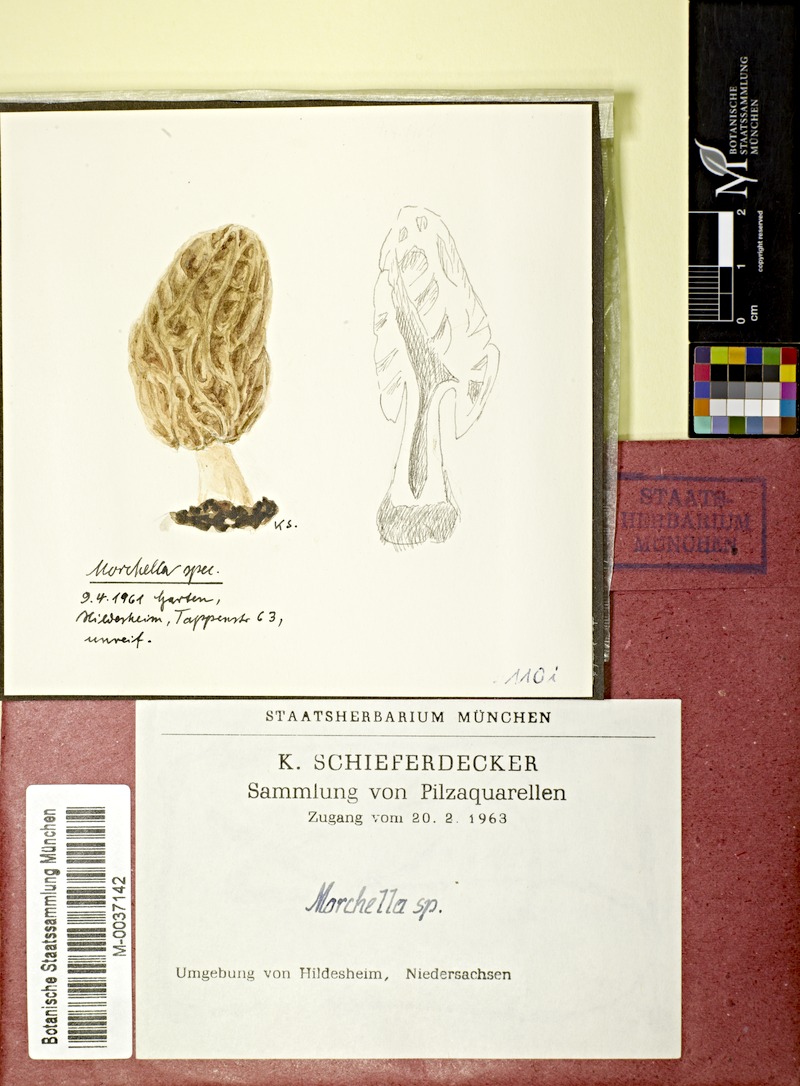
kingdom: Fungi
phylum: Ascomycota
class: Pezizomycetes
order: Pezizales
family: Morchellaceae
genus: Morchella
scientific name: Morchella
